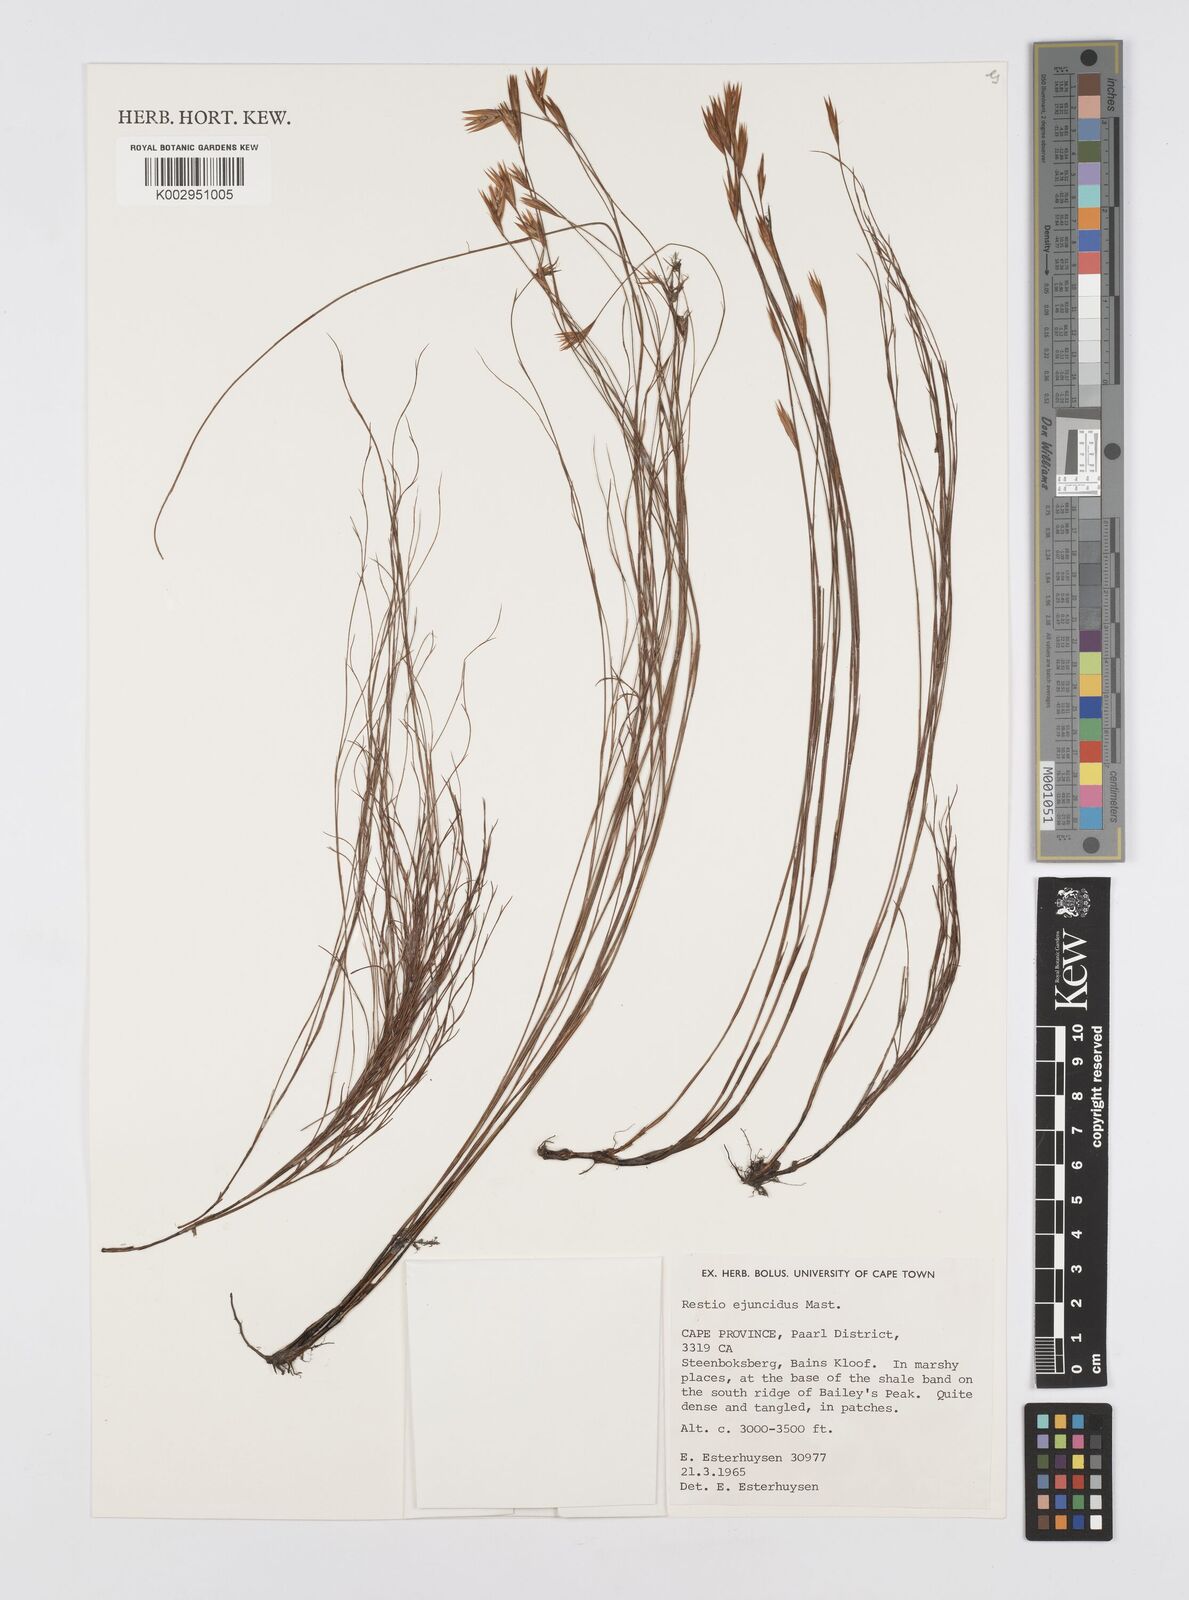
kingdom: Plantae
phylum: Tracheophyta
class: Liliopsida
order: Poales
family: Restionaceae
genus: Restio
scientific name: Restio ejuncidus
